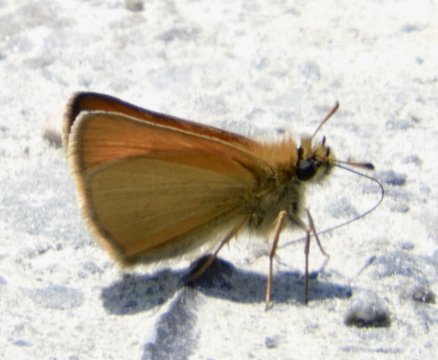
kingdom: Animalia
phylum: Arthropoda
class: Insecta
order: Lepidoptera
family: Hesperiidae
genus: Thymelicus
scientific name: Thymelicus lineola
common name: European Skipper
